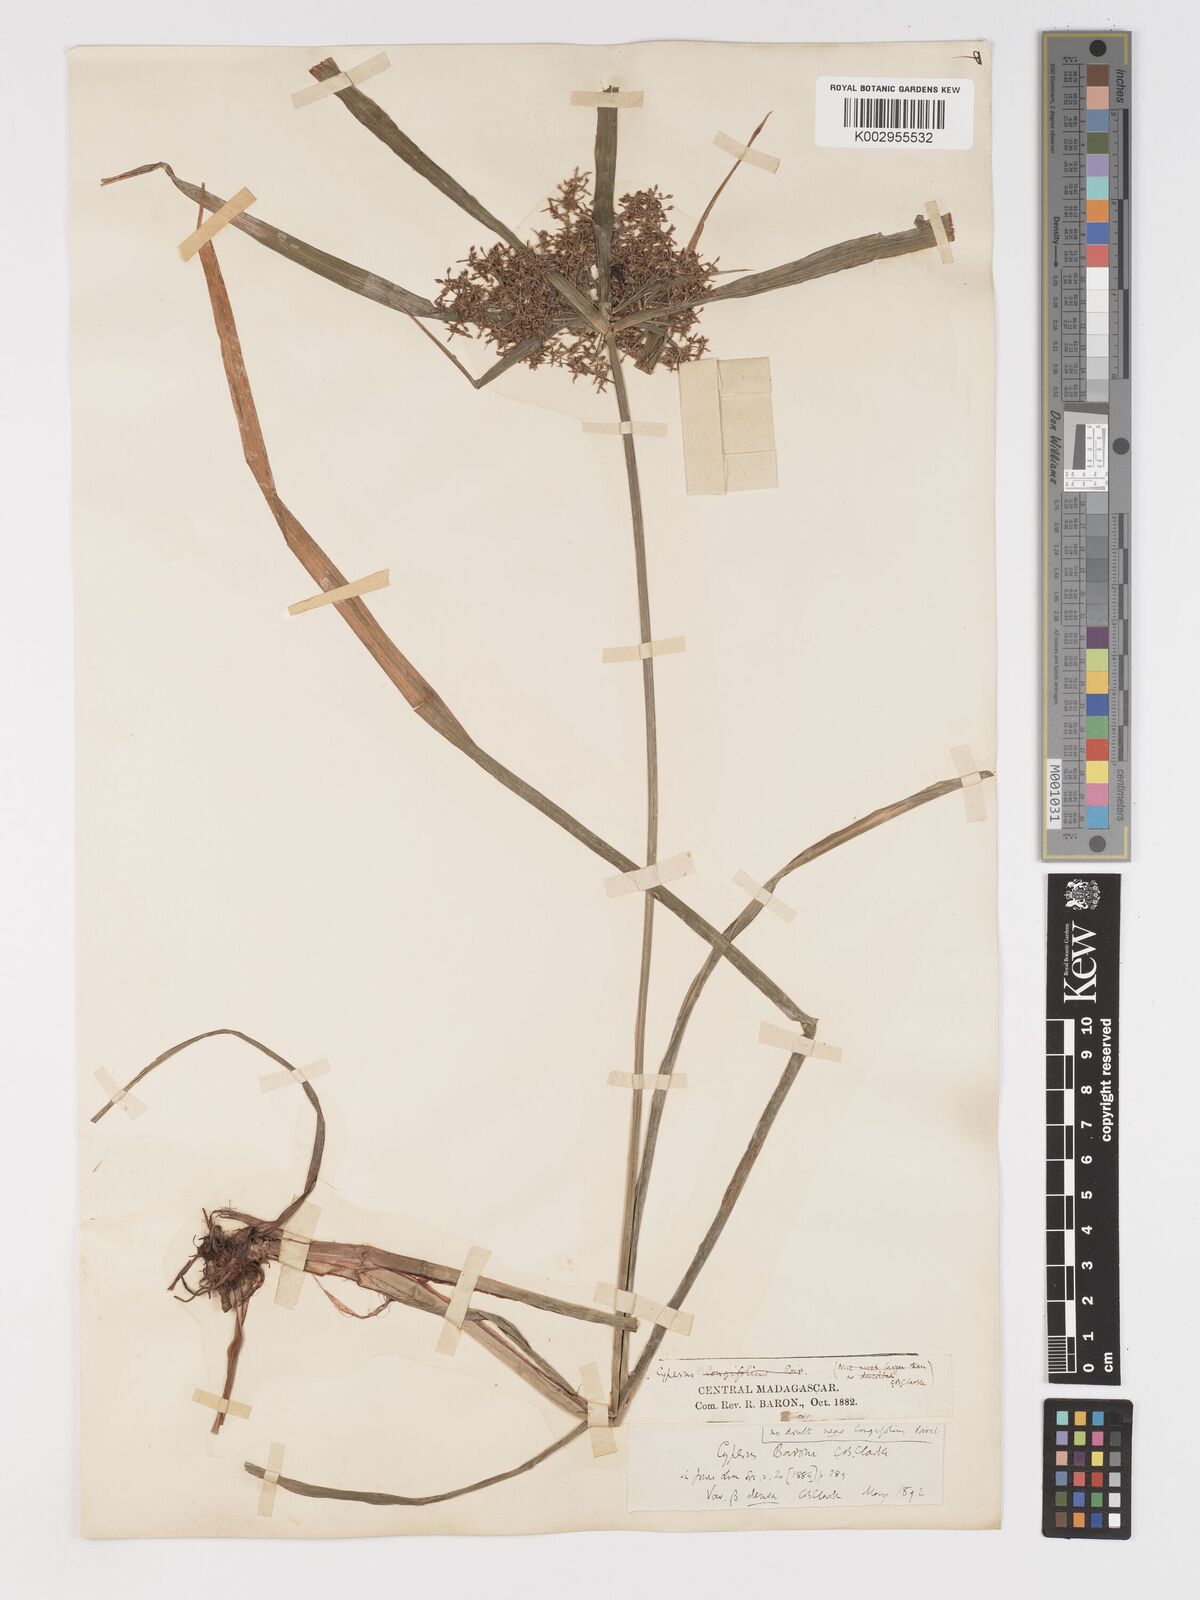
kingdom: Plantae
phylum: Tracheophyta
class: Liliopsida
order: Poales
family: Cyperaceae
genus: Cyperus
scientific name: Cyperus baronii
